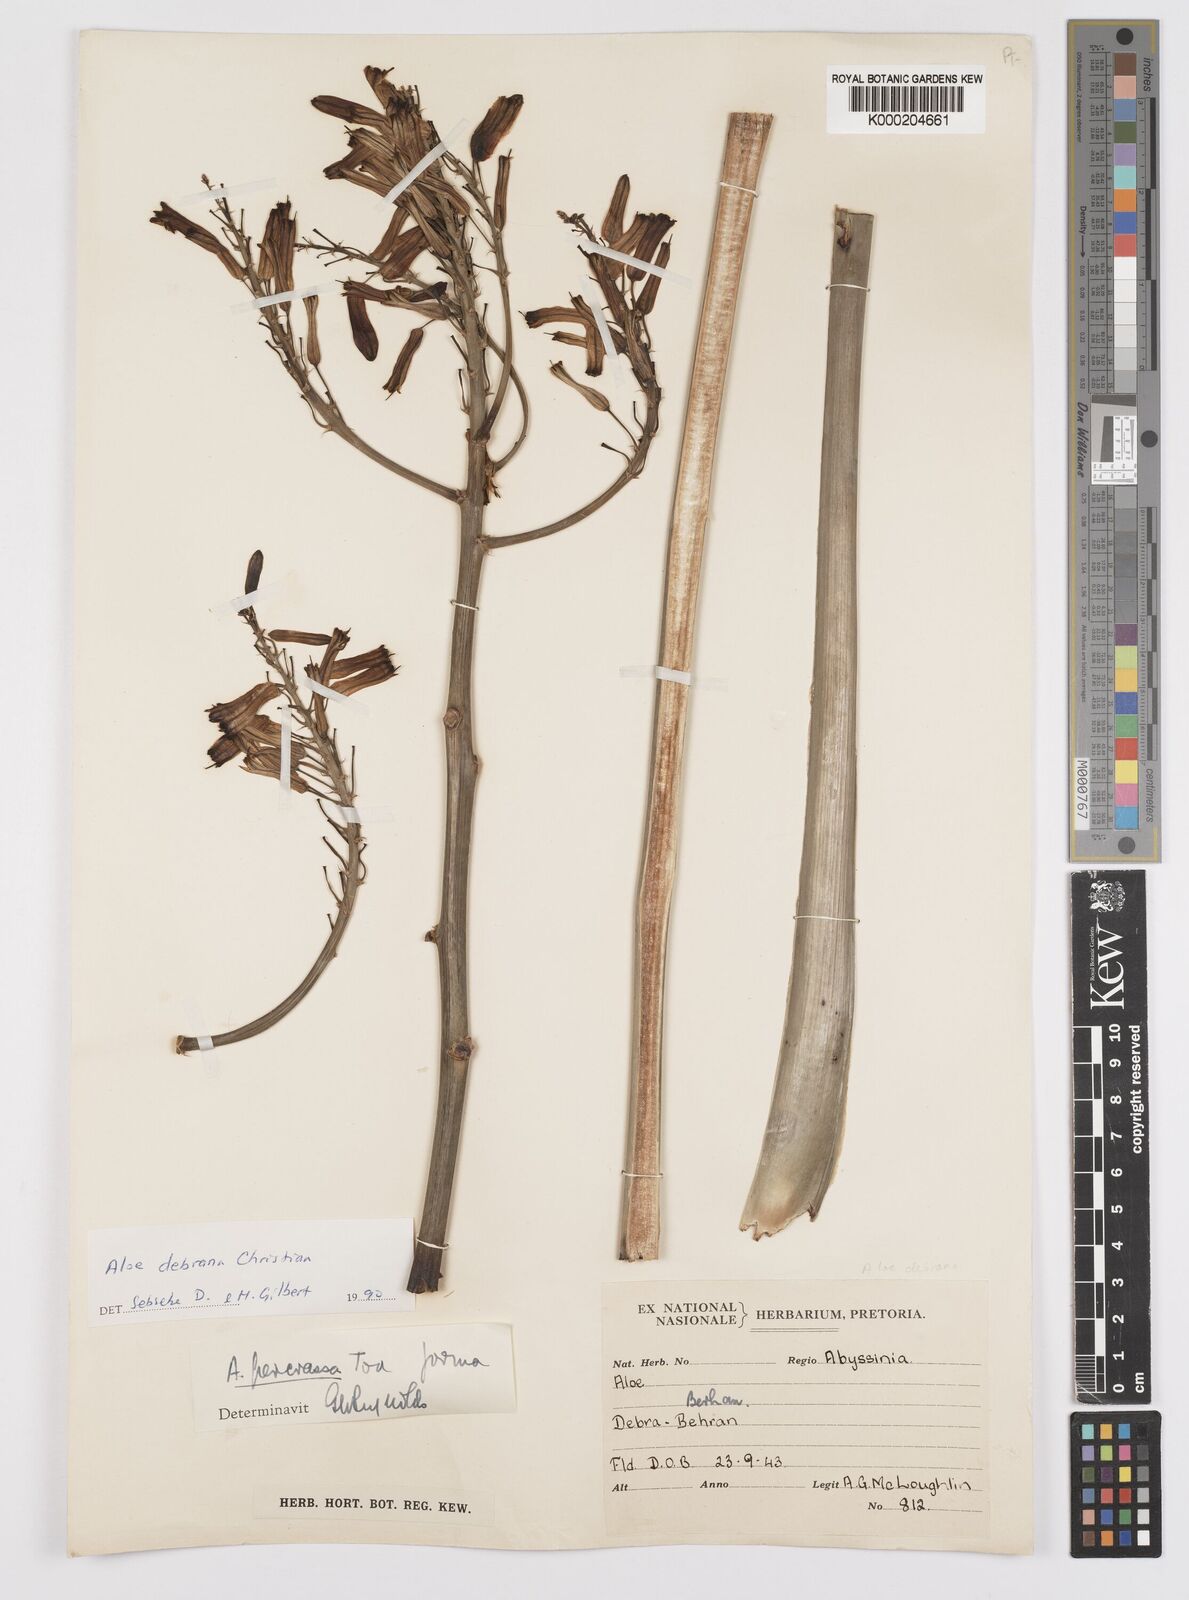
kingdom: Plantae
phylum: Tracheophyta
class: Liliopsida
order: Asparagales
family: Asphodelaceae
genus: Aloe
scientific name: Aloe debrana
